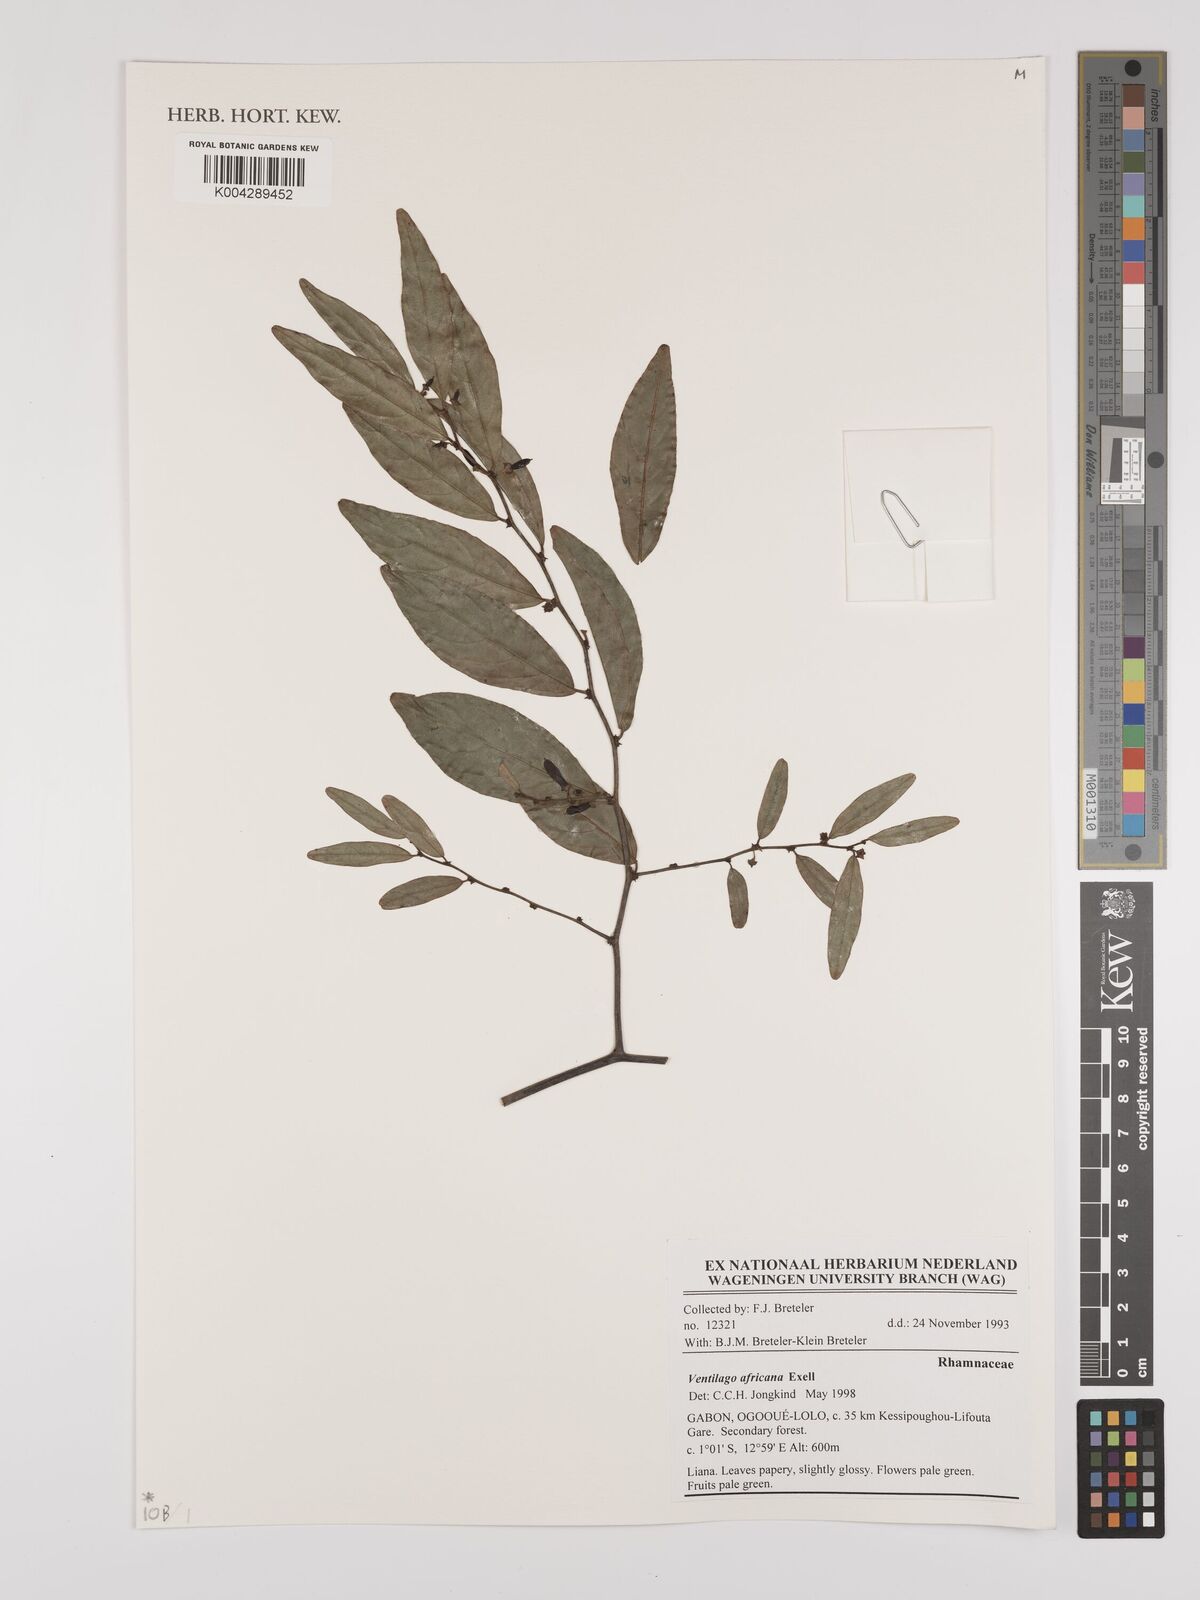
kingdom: Plantae
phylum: Tracheophyta
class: Magnoliopsida
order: Rosales
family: Rhamnaceae
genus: Ventilago
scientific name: Ventilago africana
